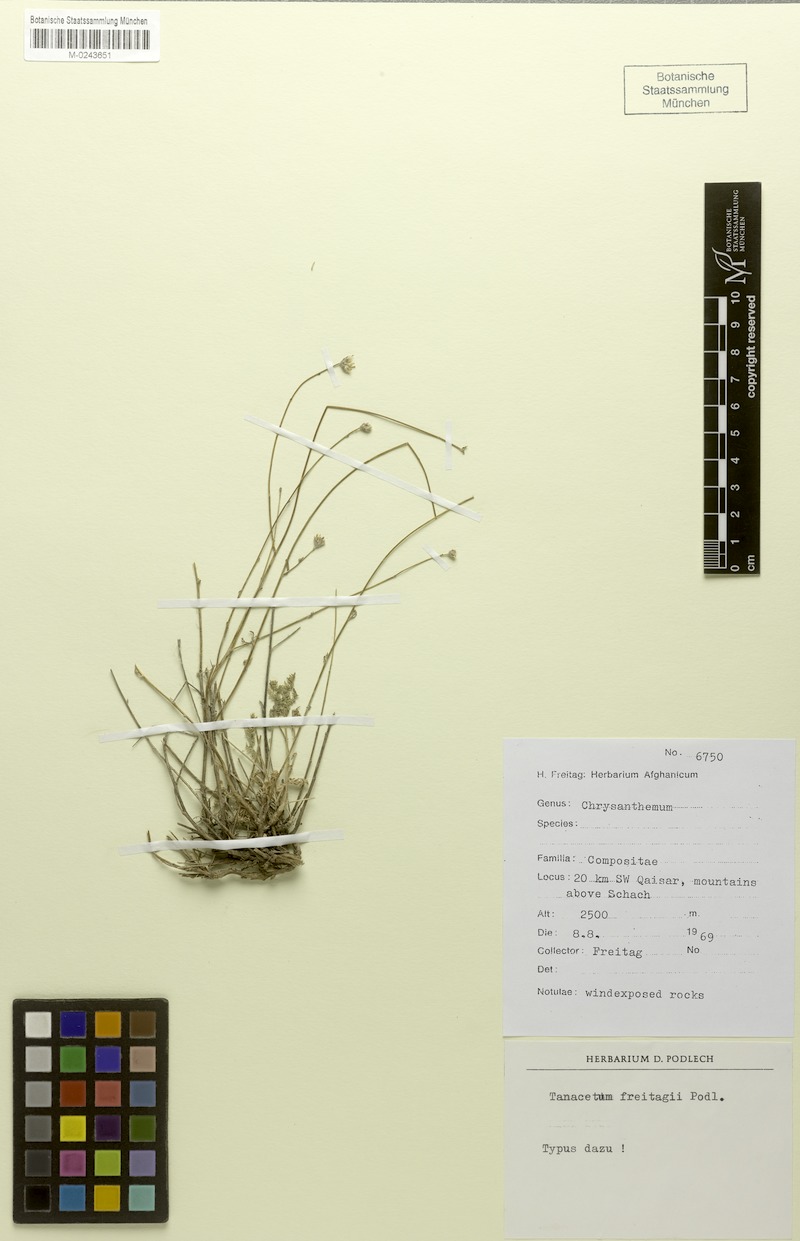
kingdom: Plantae
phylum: Tracheophyta
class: Magnoliopsida
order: Asterales
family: Asteraceae
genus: Tanacetopsis
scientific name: Tanacetopsis freitagii
